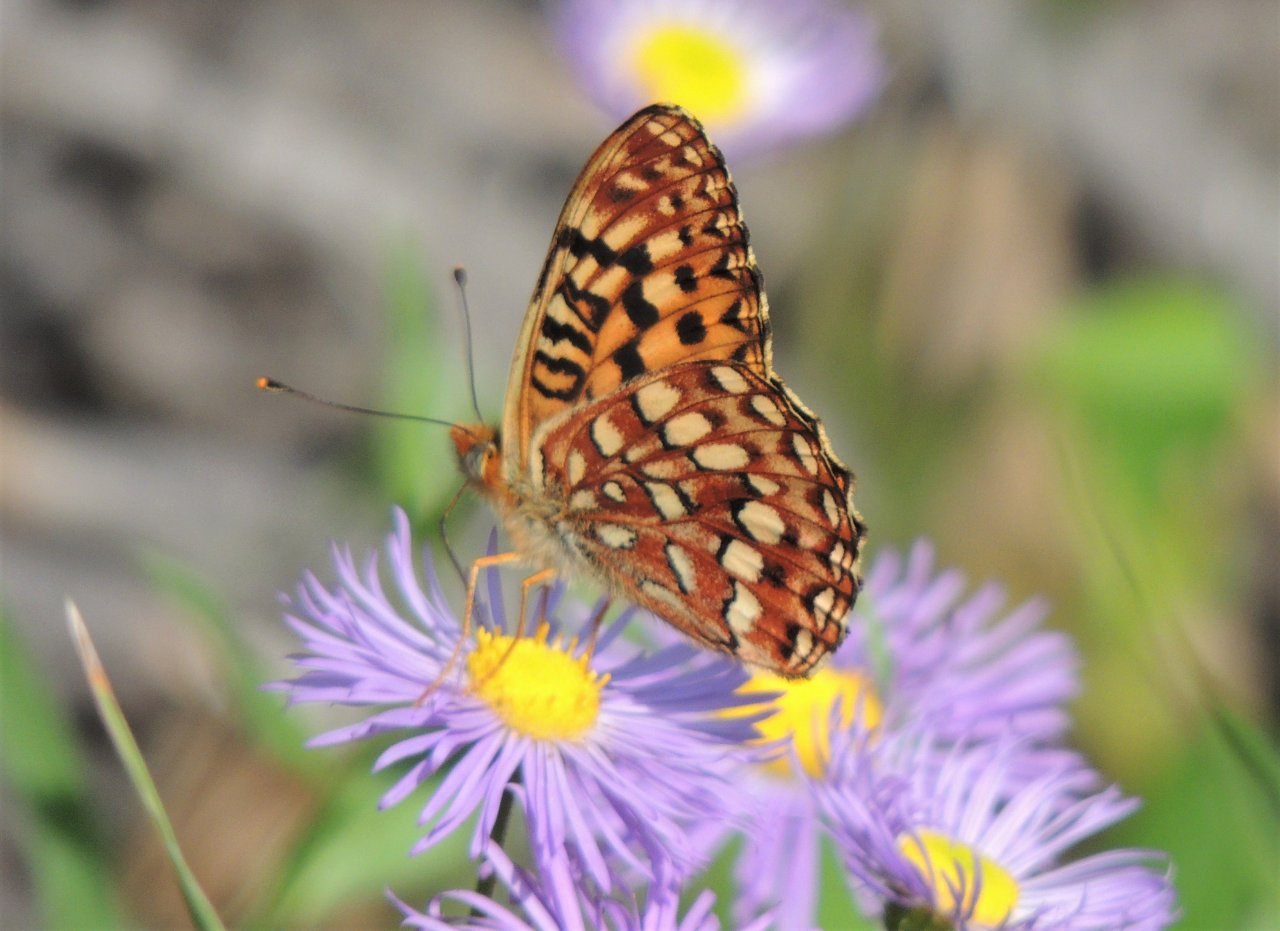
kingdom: Animalia
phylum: Arthropoda
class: Insecta
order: Lepidoptera
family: Nymphalidae
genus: Speyeria
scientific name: Speyeria hydaspe
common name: Hydaspe Fritillary
